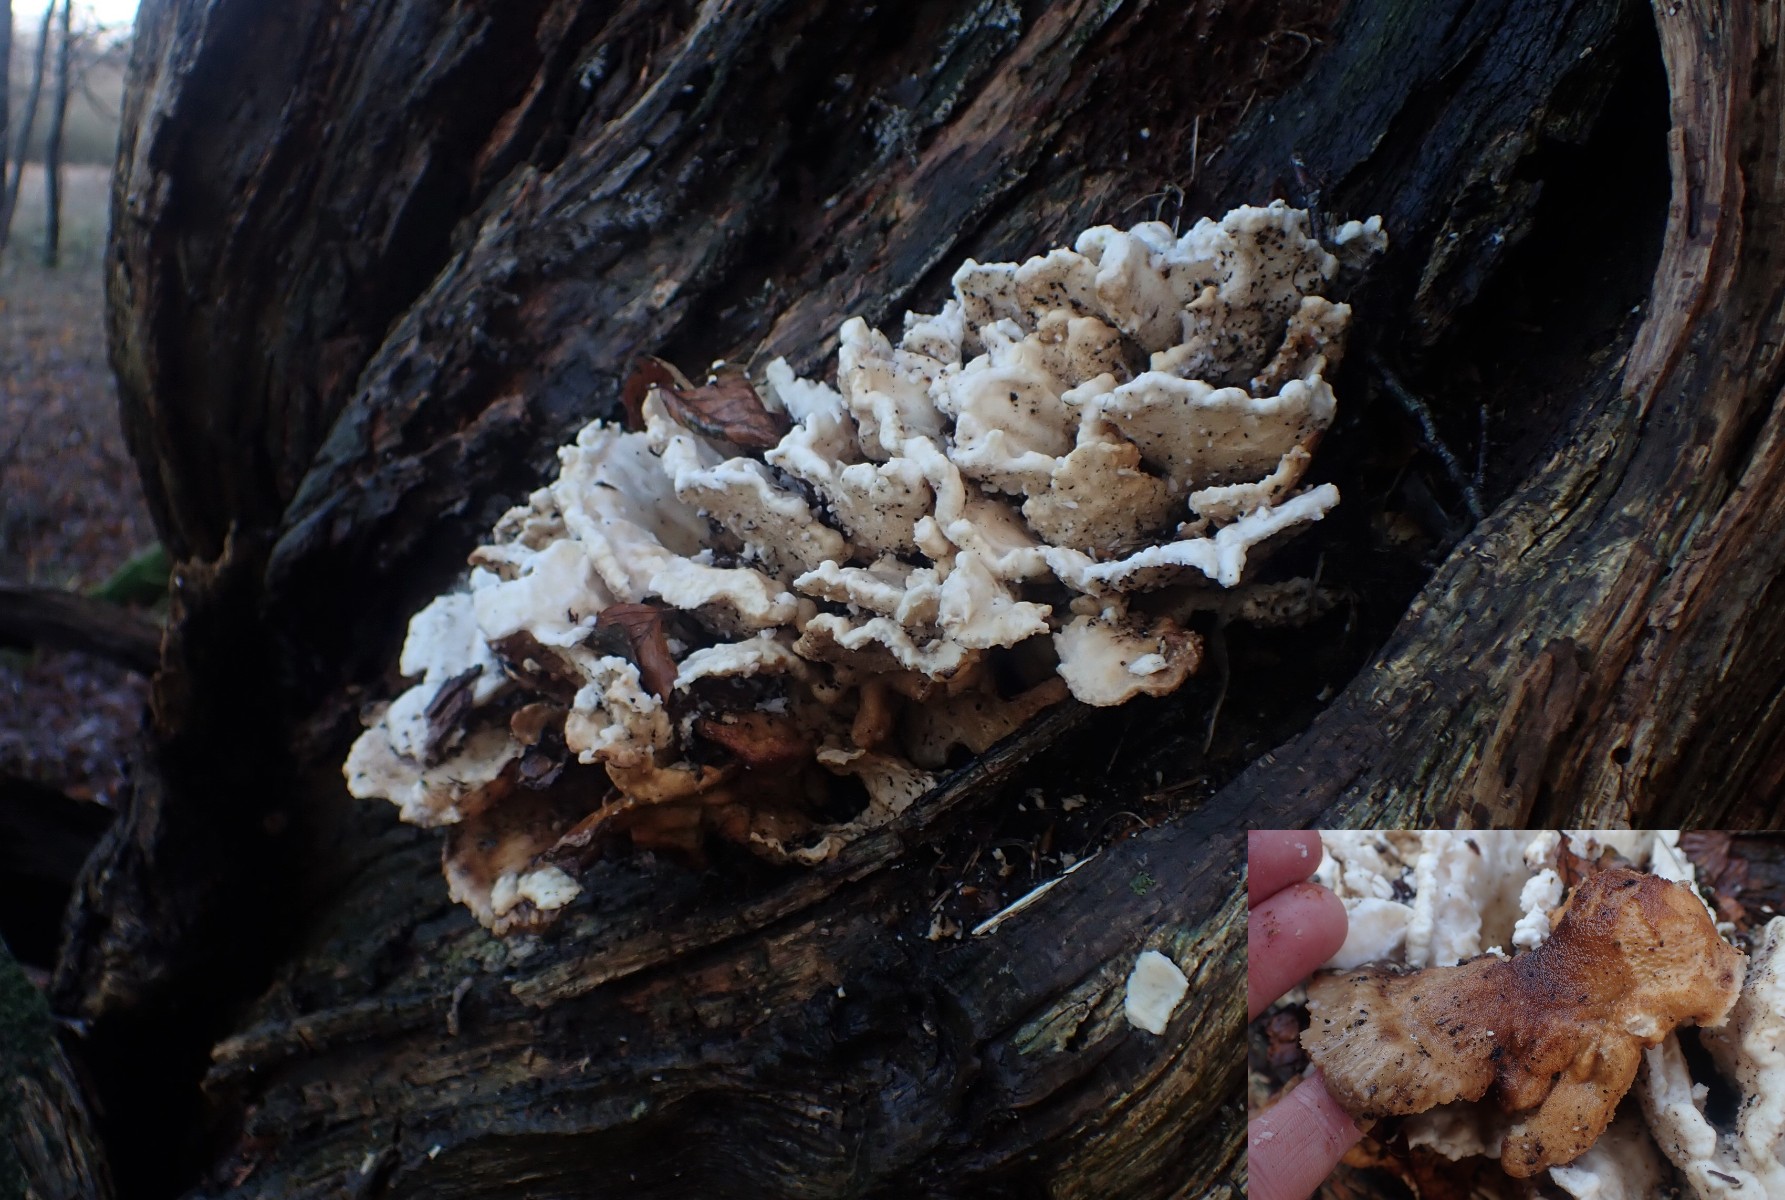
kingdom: Fungi
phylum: Basidiomycota
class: Agaricomycetes
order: Polyporales
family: Laetiporaceae
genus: Laetiporus
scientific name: Laetiporus sulphureus
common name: svovlporesvamp
